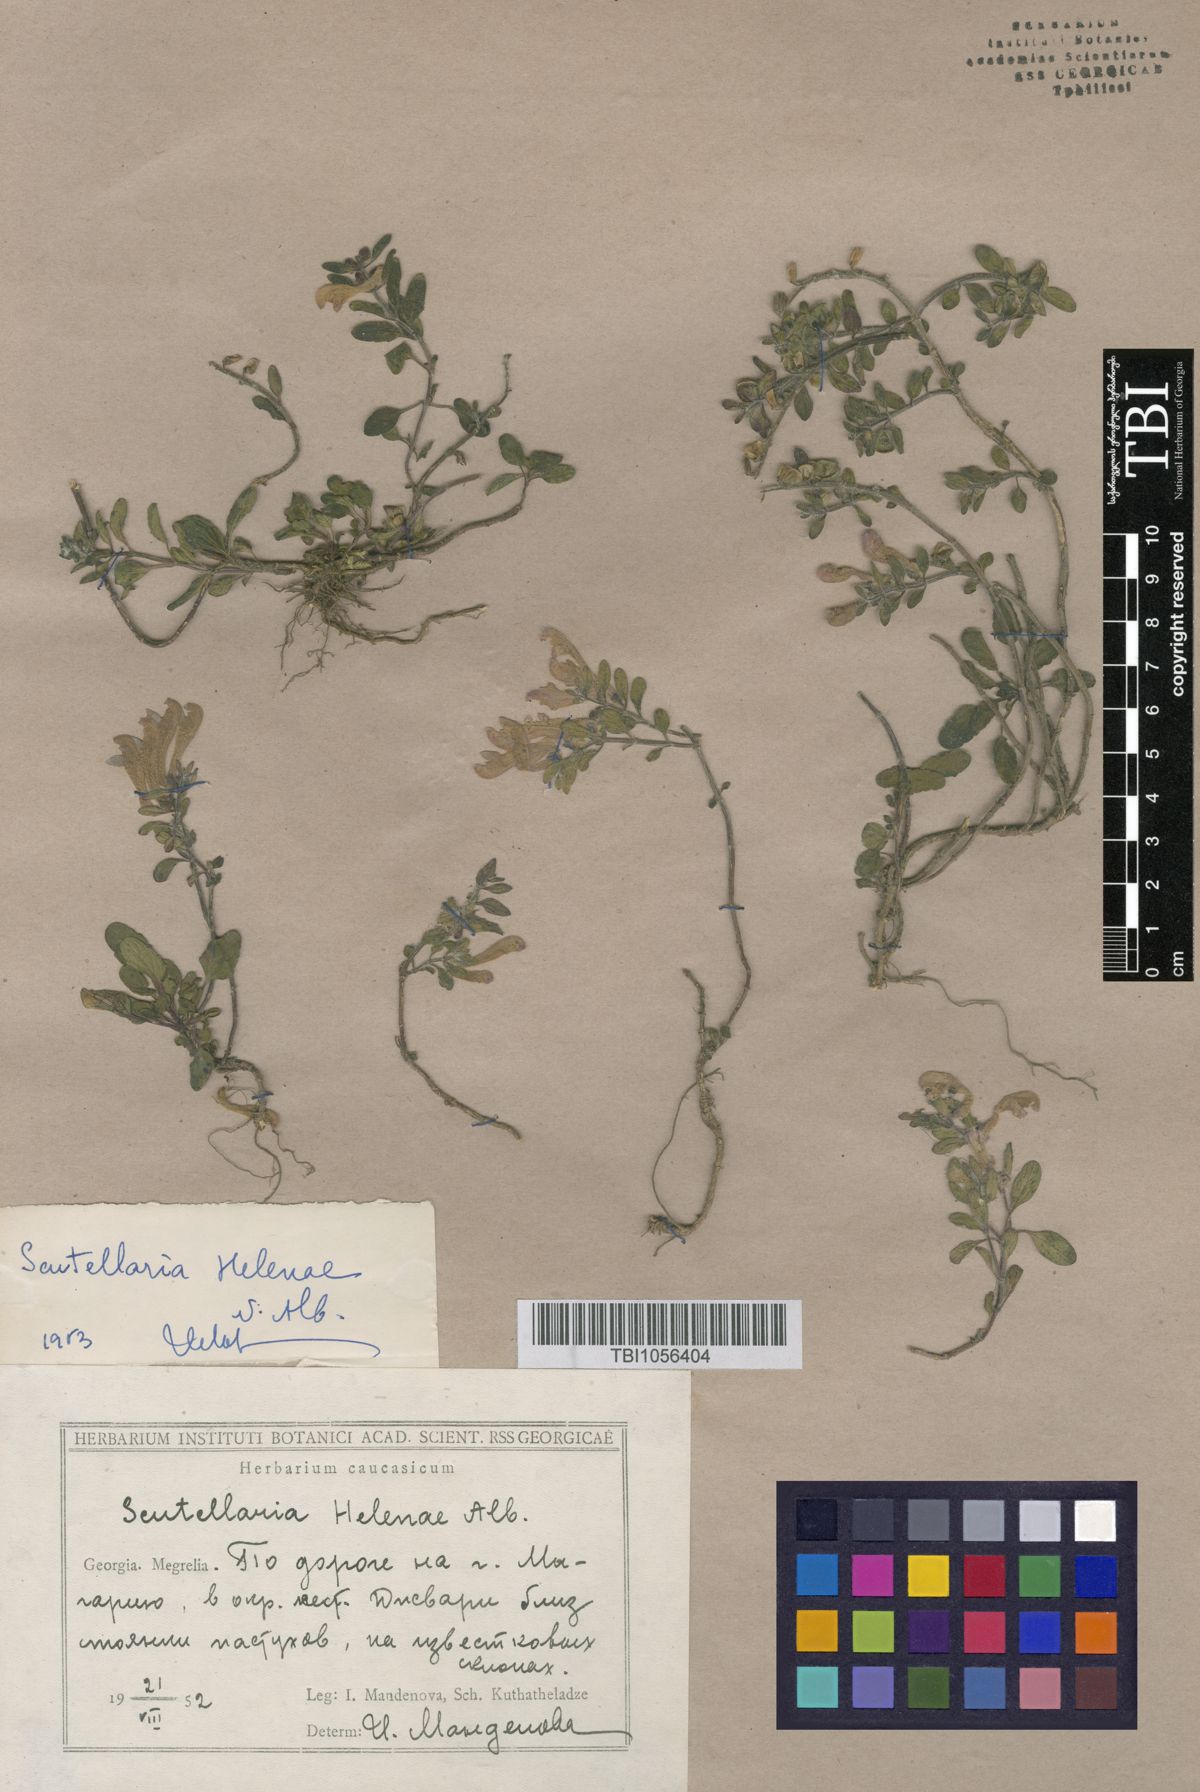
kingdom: Plantae
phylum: Tracheophyta
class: Magnoliopsida
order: Lamiales
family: Lamiaceae
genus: Scutellaria
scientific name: Scutellaria helenae
